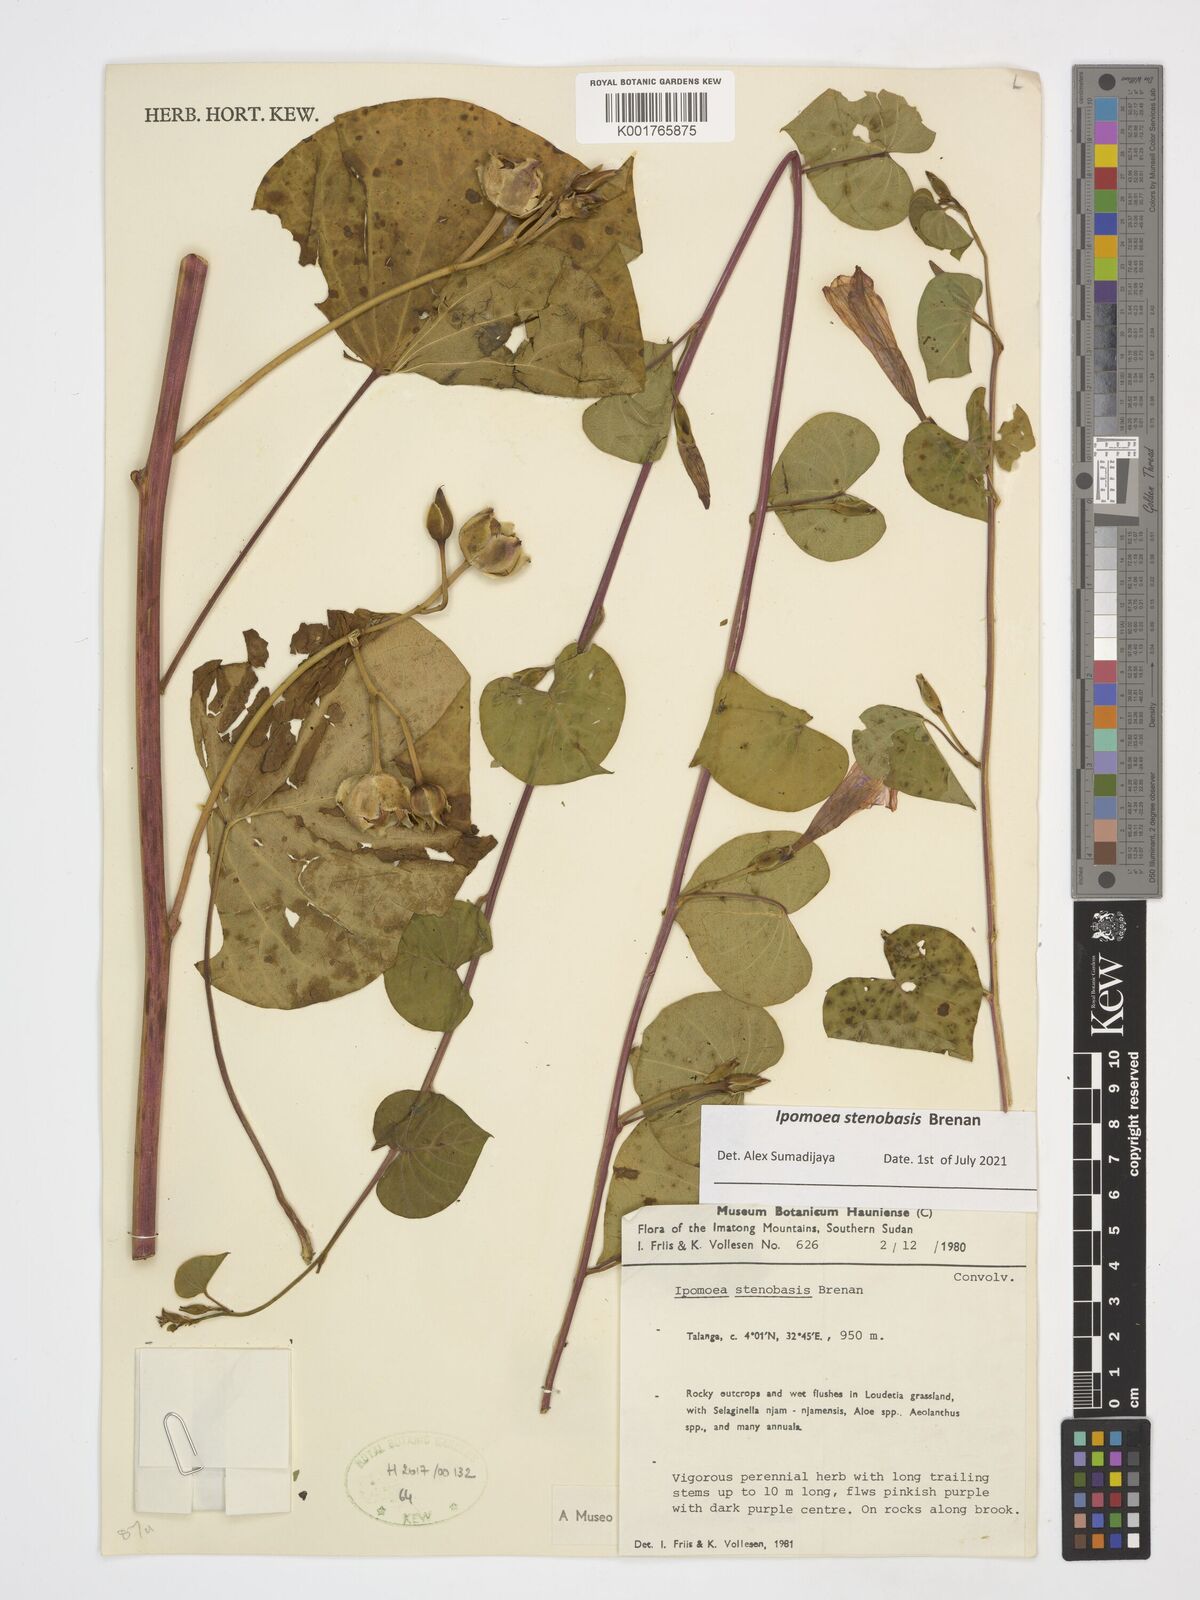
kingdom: Plantae
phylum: Tracheophyta
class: Magnoliopsida
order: Solanales
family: Convolvulaceae
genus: Ipomoea
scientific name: Ipomoea stenobasis
